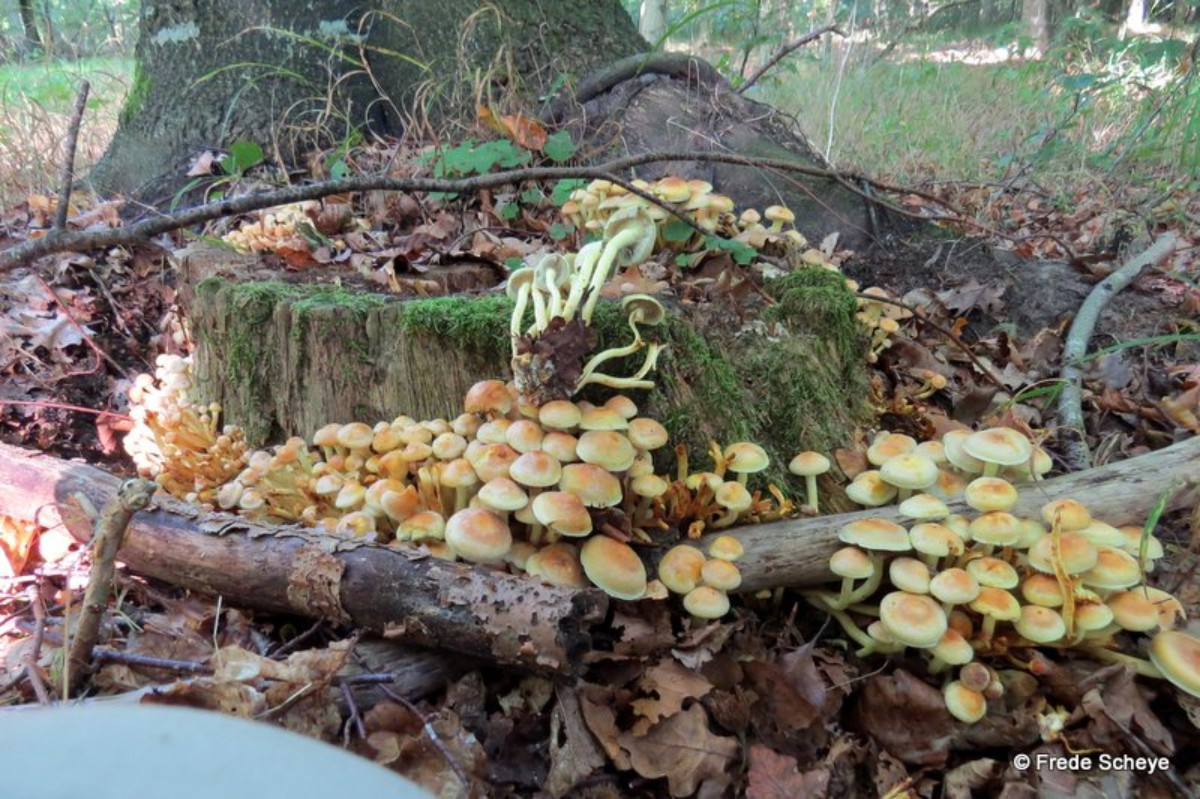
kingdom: Fungi
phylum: Basidiomycota
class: Agaricomycetes
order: Agaricales
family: Strophariaceae
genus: Hypholoma
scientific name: Hypholoma fasciculare
